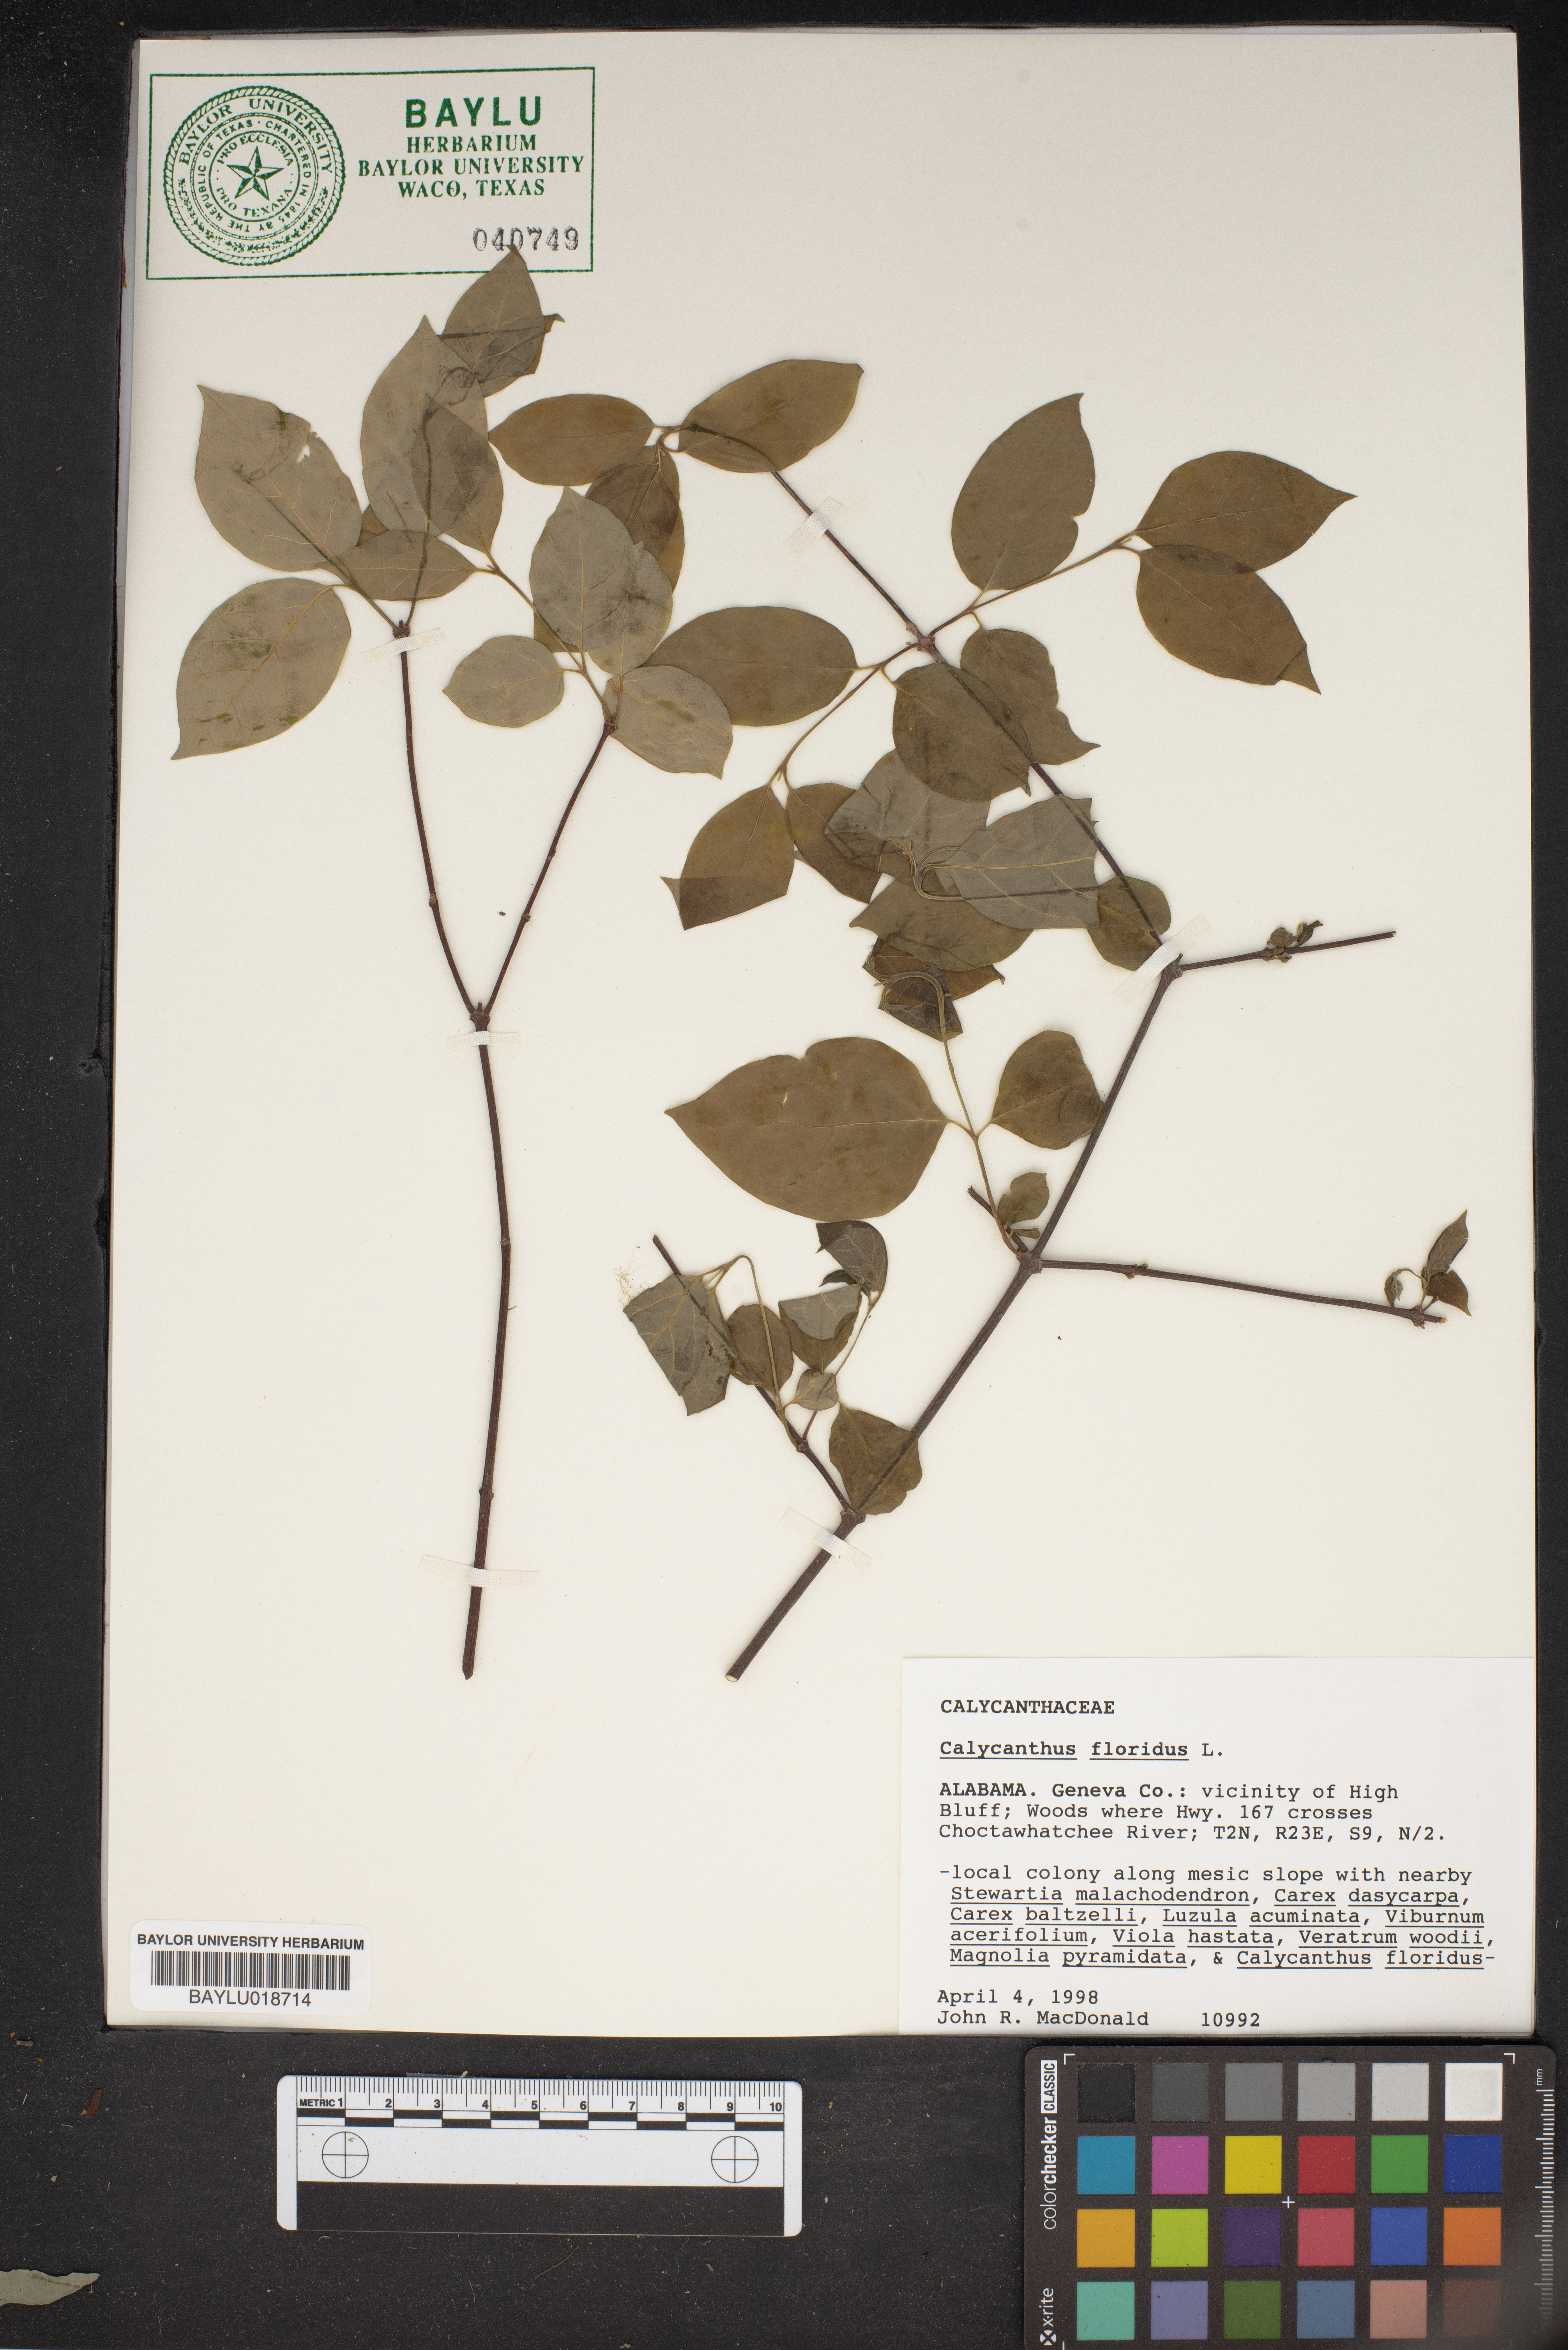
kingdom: Plantae
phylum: Tracheophyta
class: Magnoliopsida
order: Laurales
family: Calycanthaceae
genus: Calycanthus
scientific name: Calycanthus floridus
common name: Carolina-allspice
